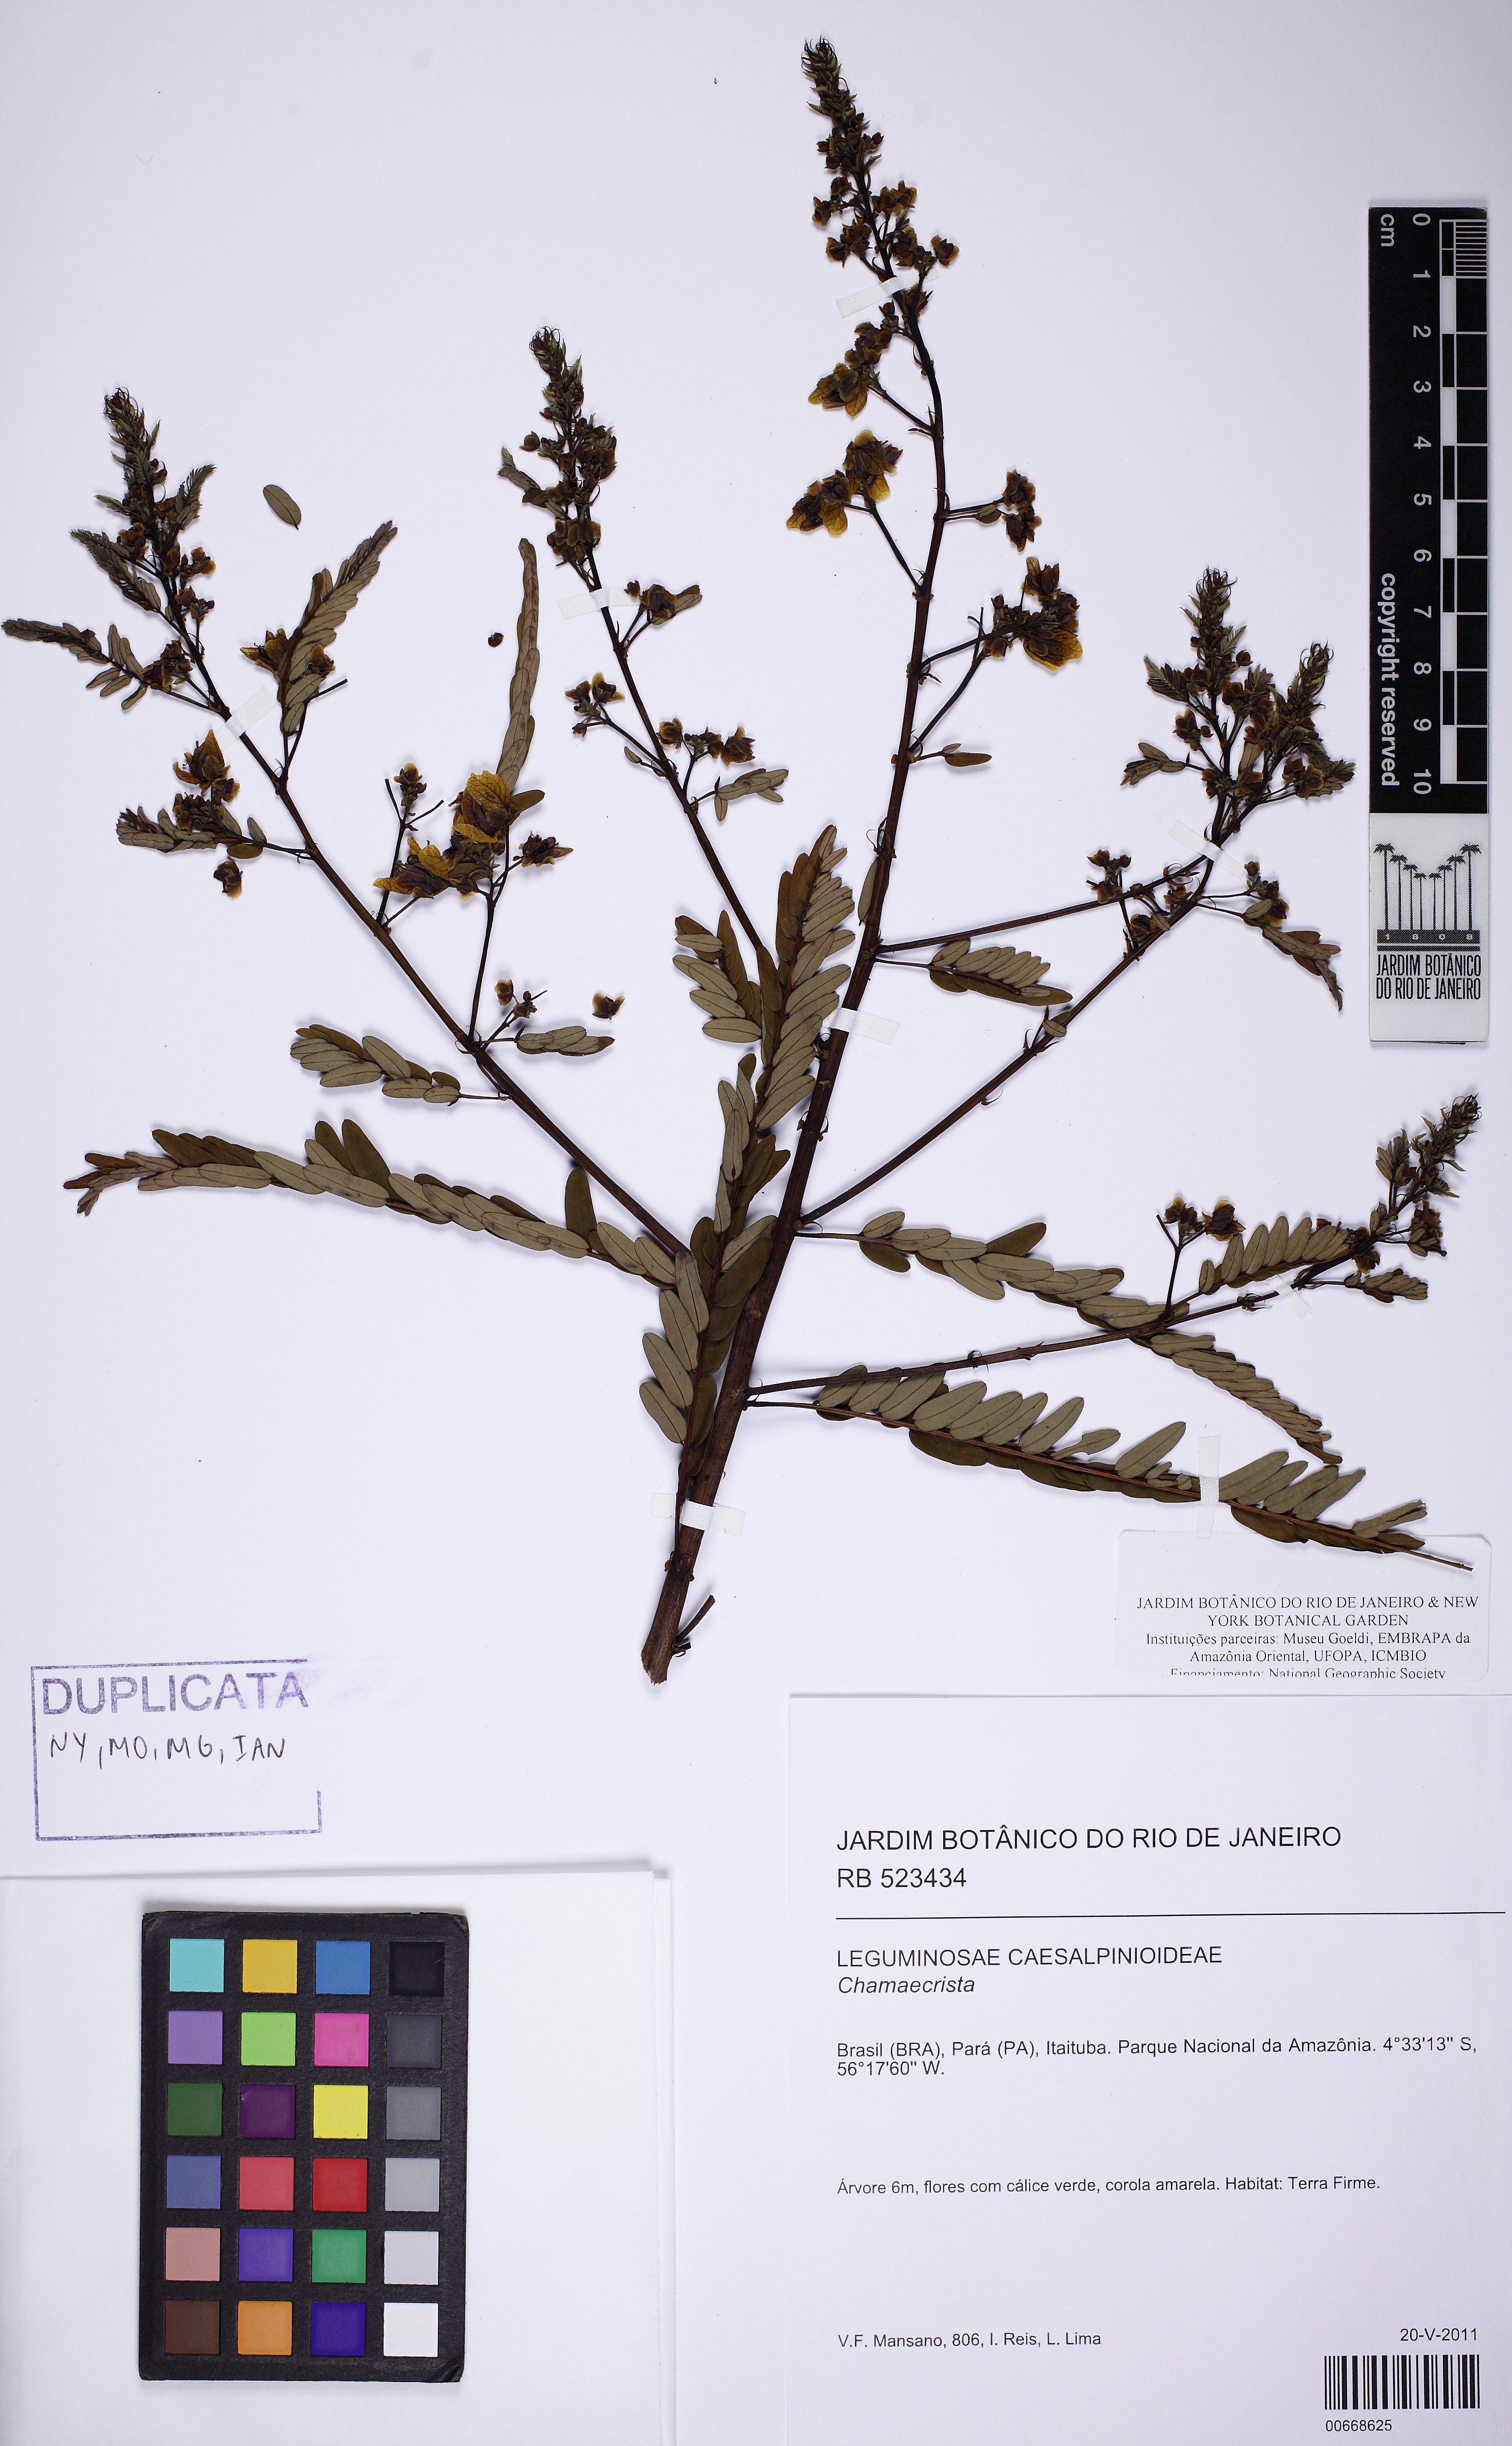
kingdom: Plantae
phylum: Tracheophyta
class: Magnoliopsida
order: Fabales
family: Fabaceae
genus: Chamaecrista
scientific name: Chamaecrista
